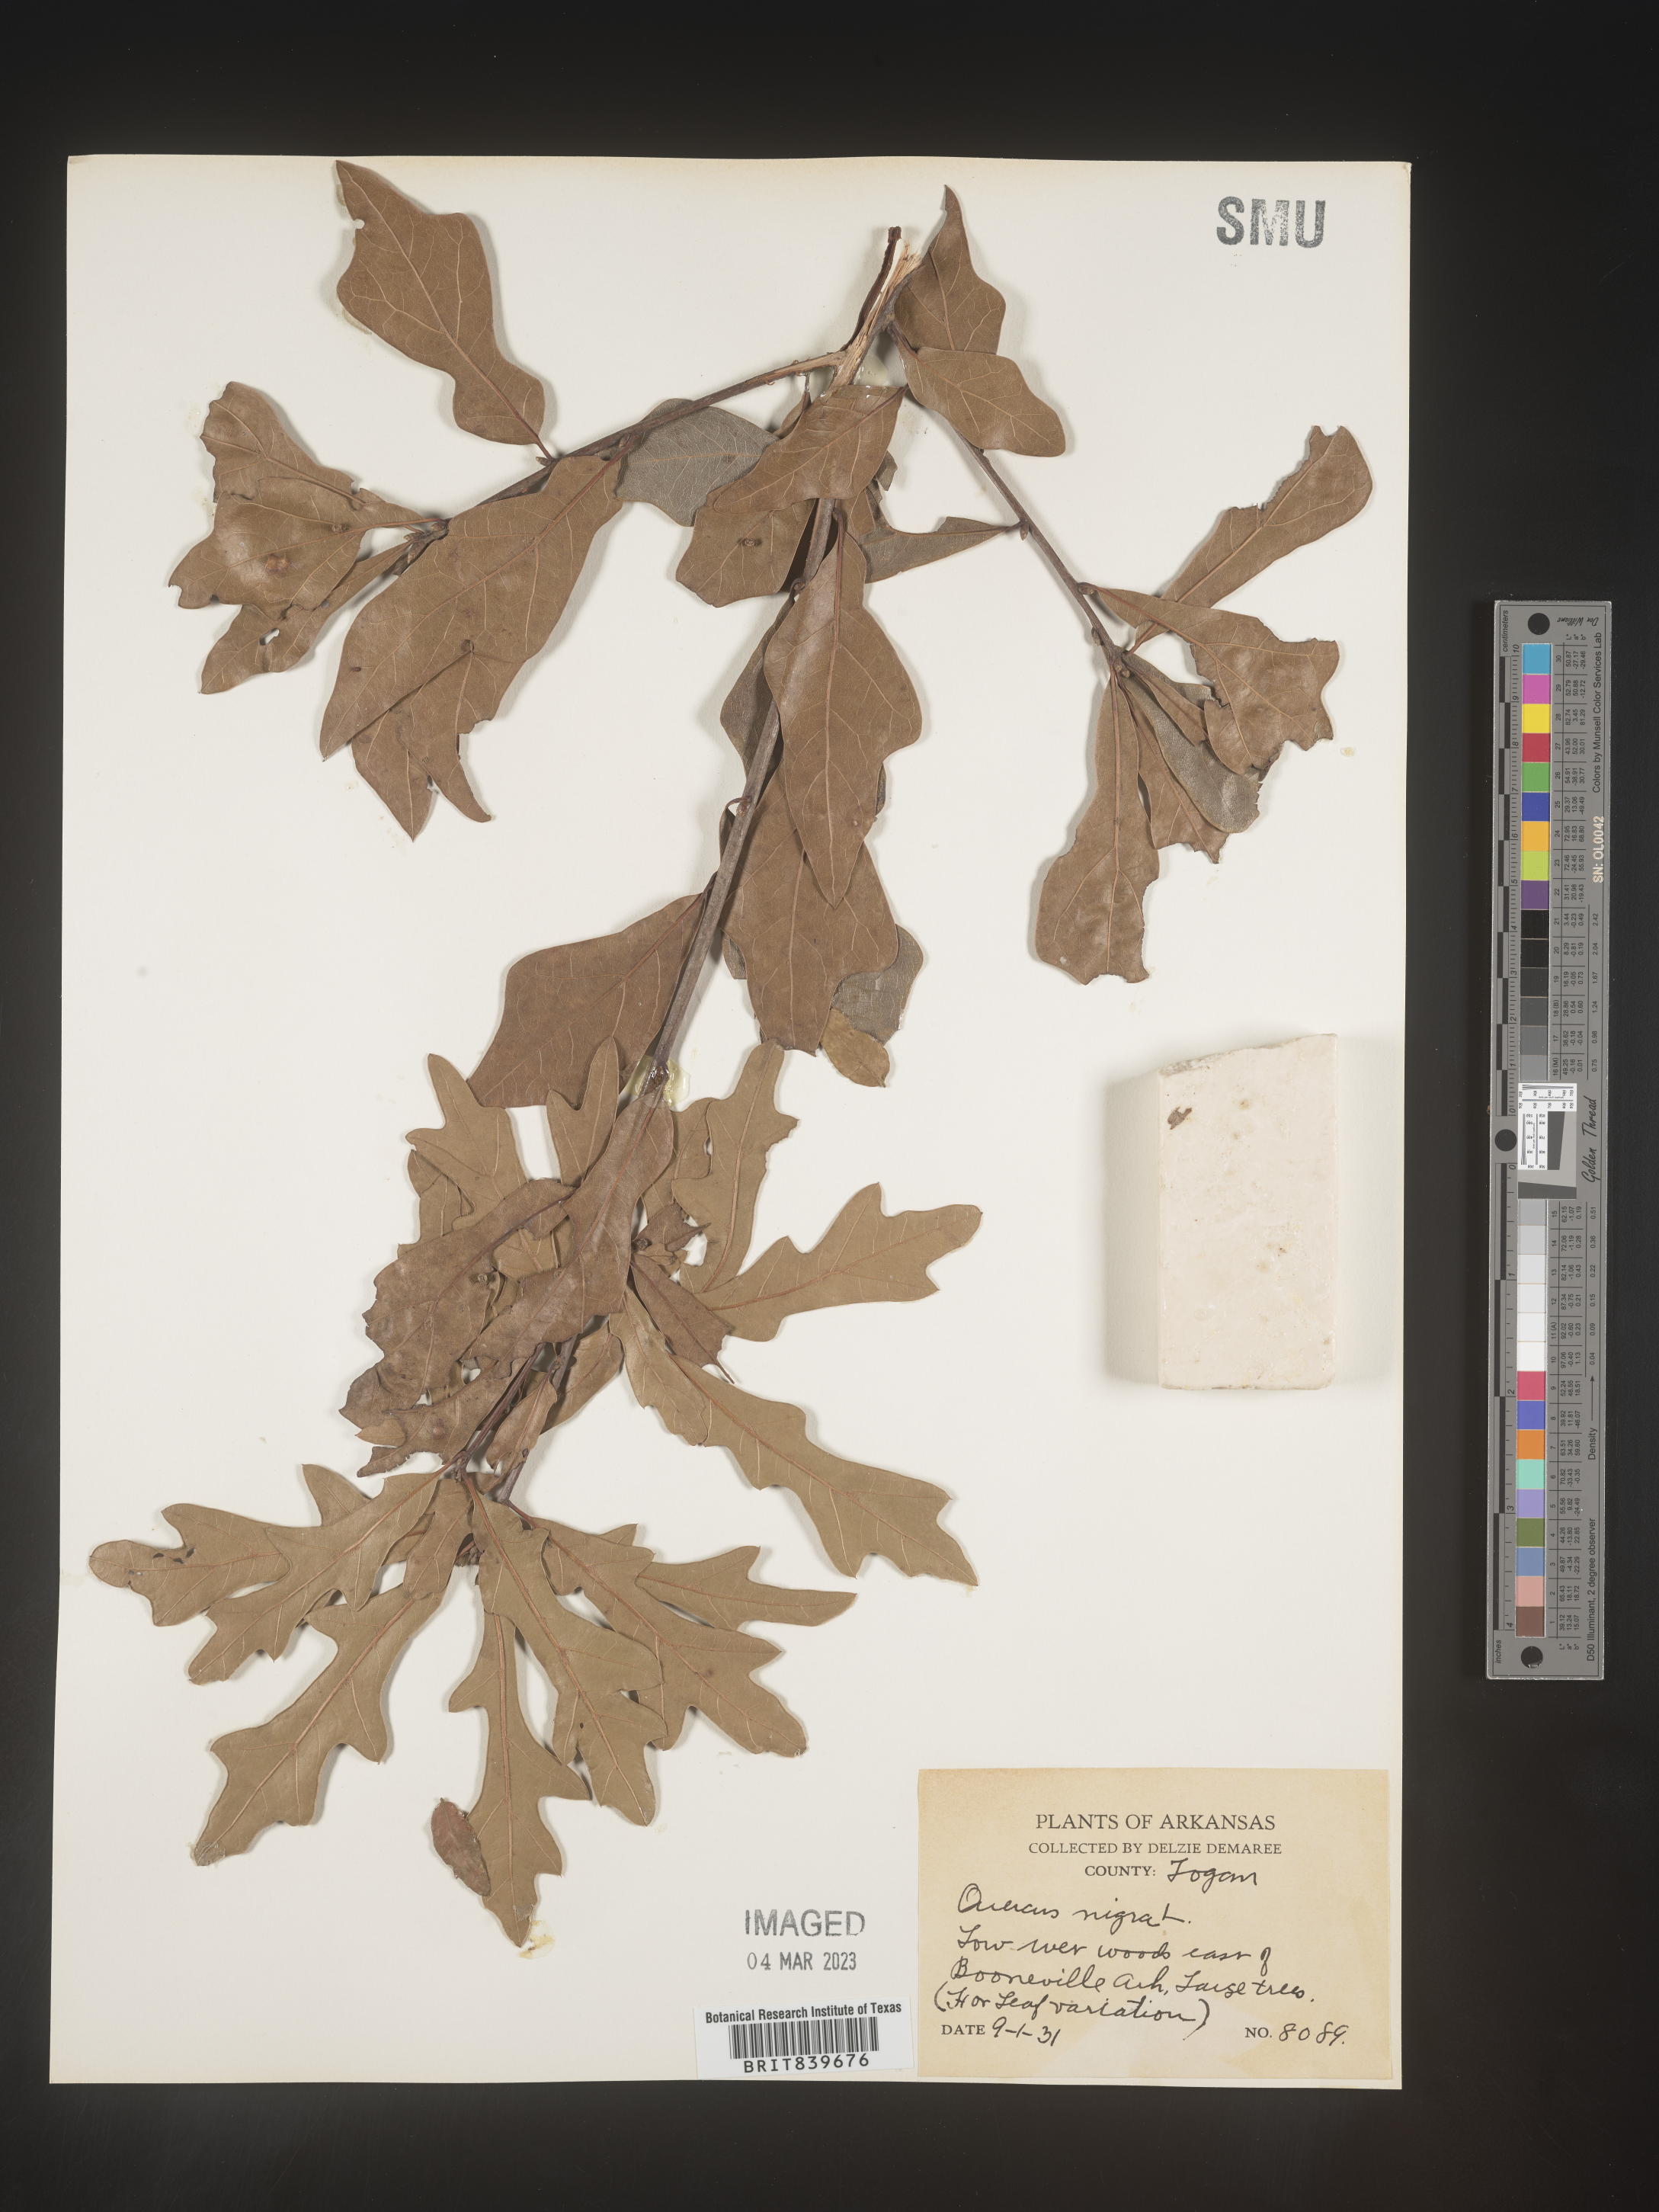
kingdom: Plantae
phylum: Tracheophyta
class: Magnoliopsida
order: Fagales
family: Fagaceae
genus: Quercus
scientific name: Quercus nigra
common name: Water oak
